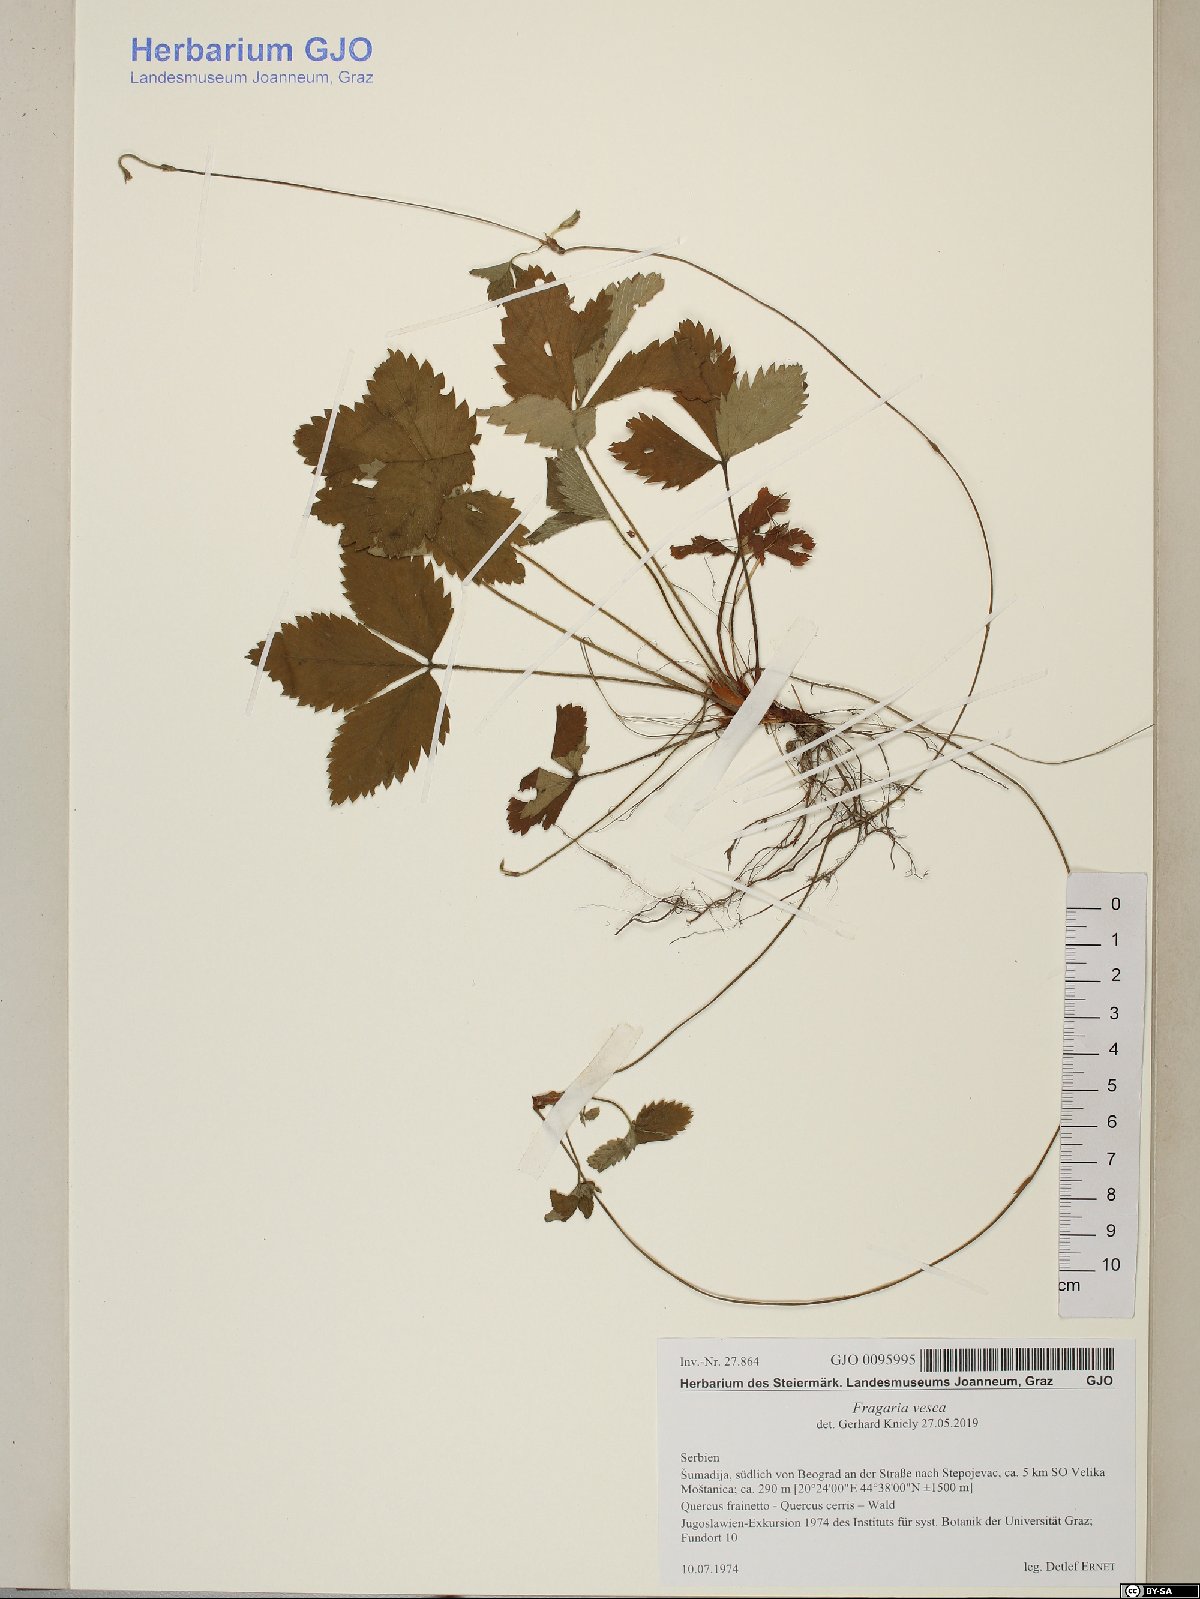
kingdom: Plantae
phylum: Tracheophyta
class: Magnoliopsida
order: Rosales
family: Rosaceae
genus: Fragaria
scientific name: Fragaria vesca
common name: Wild strawberry
